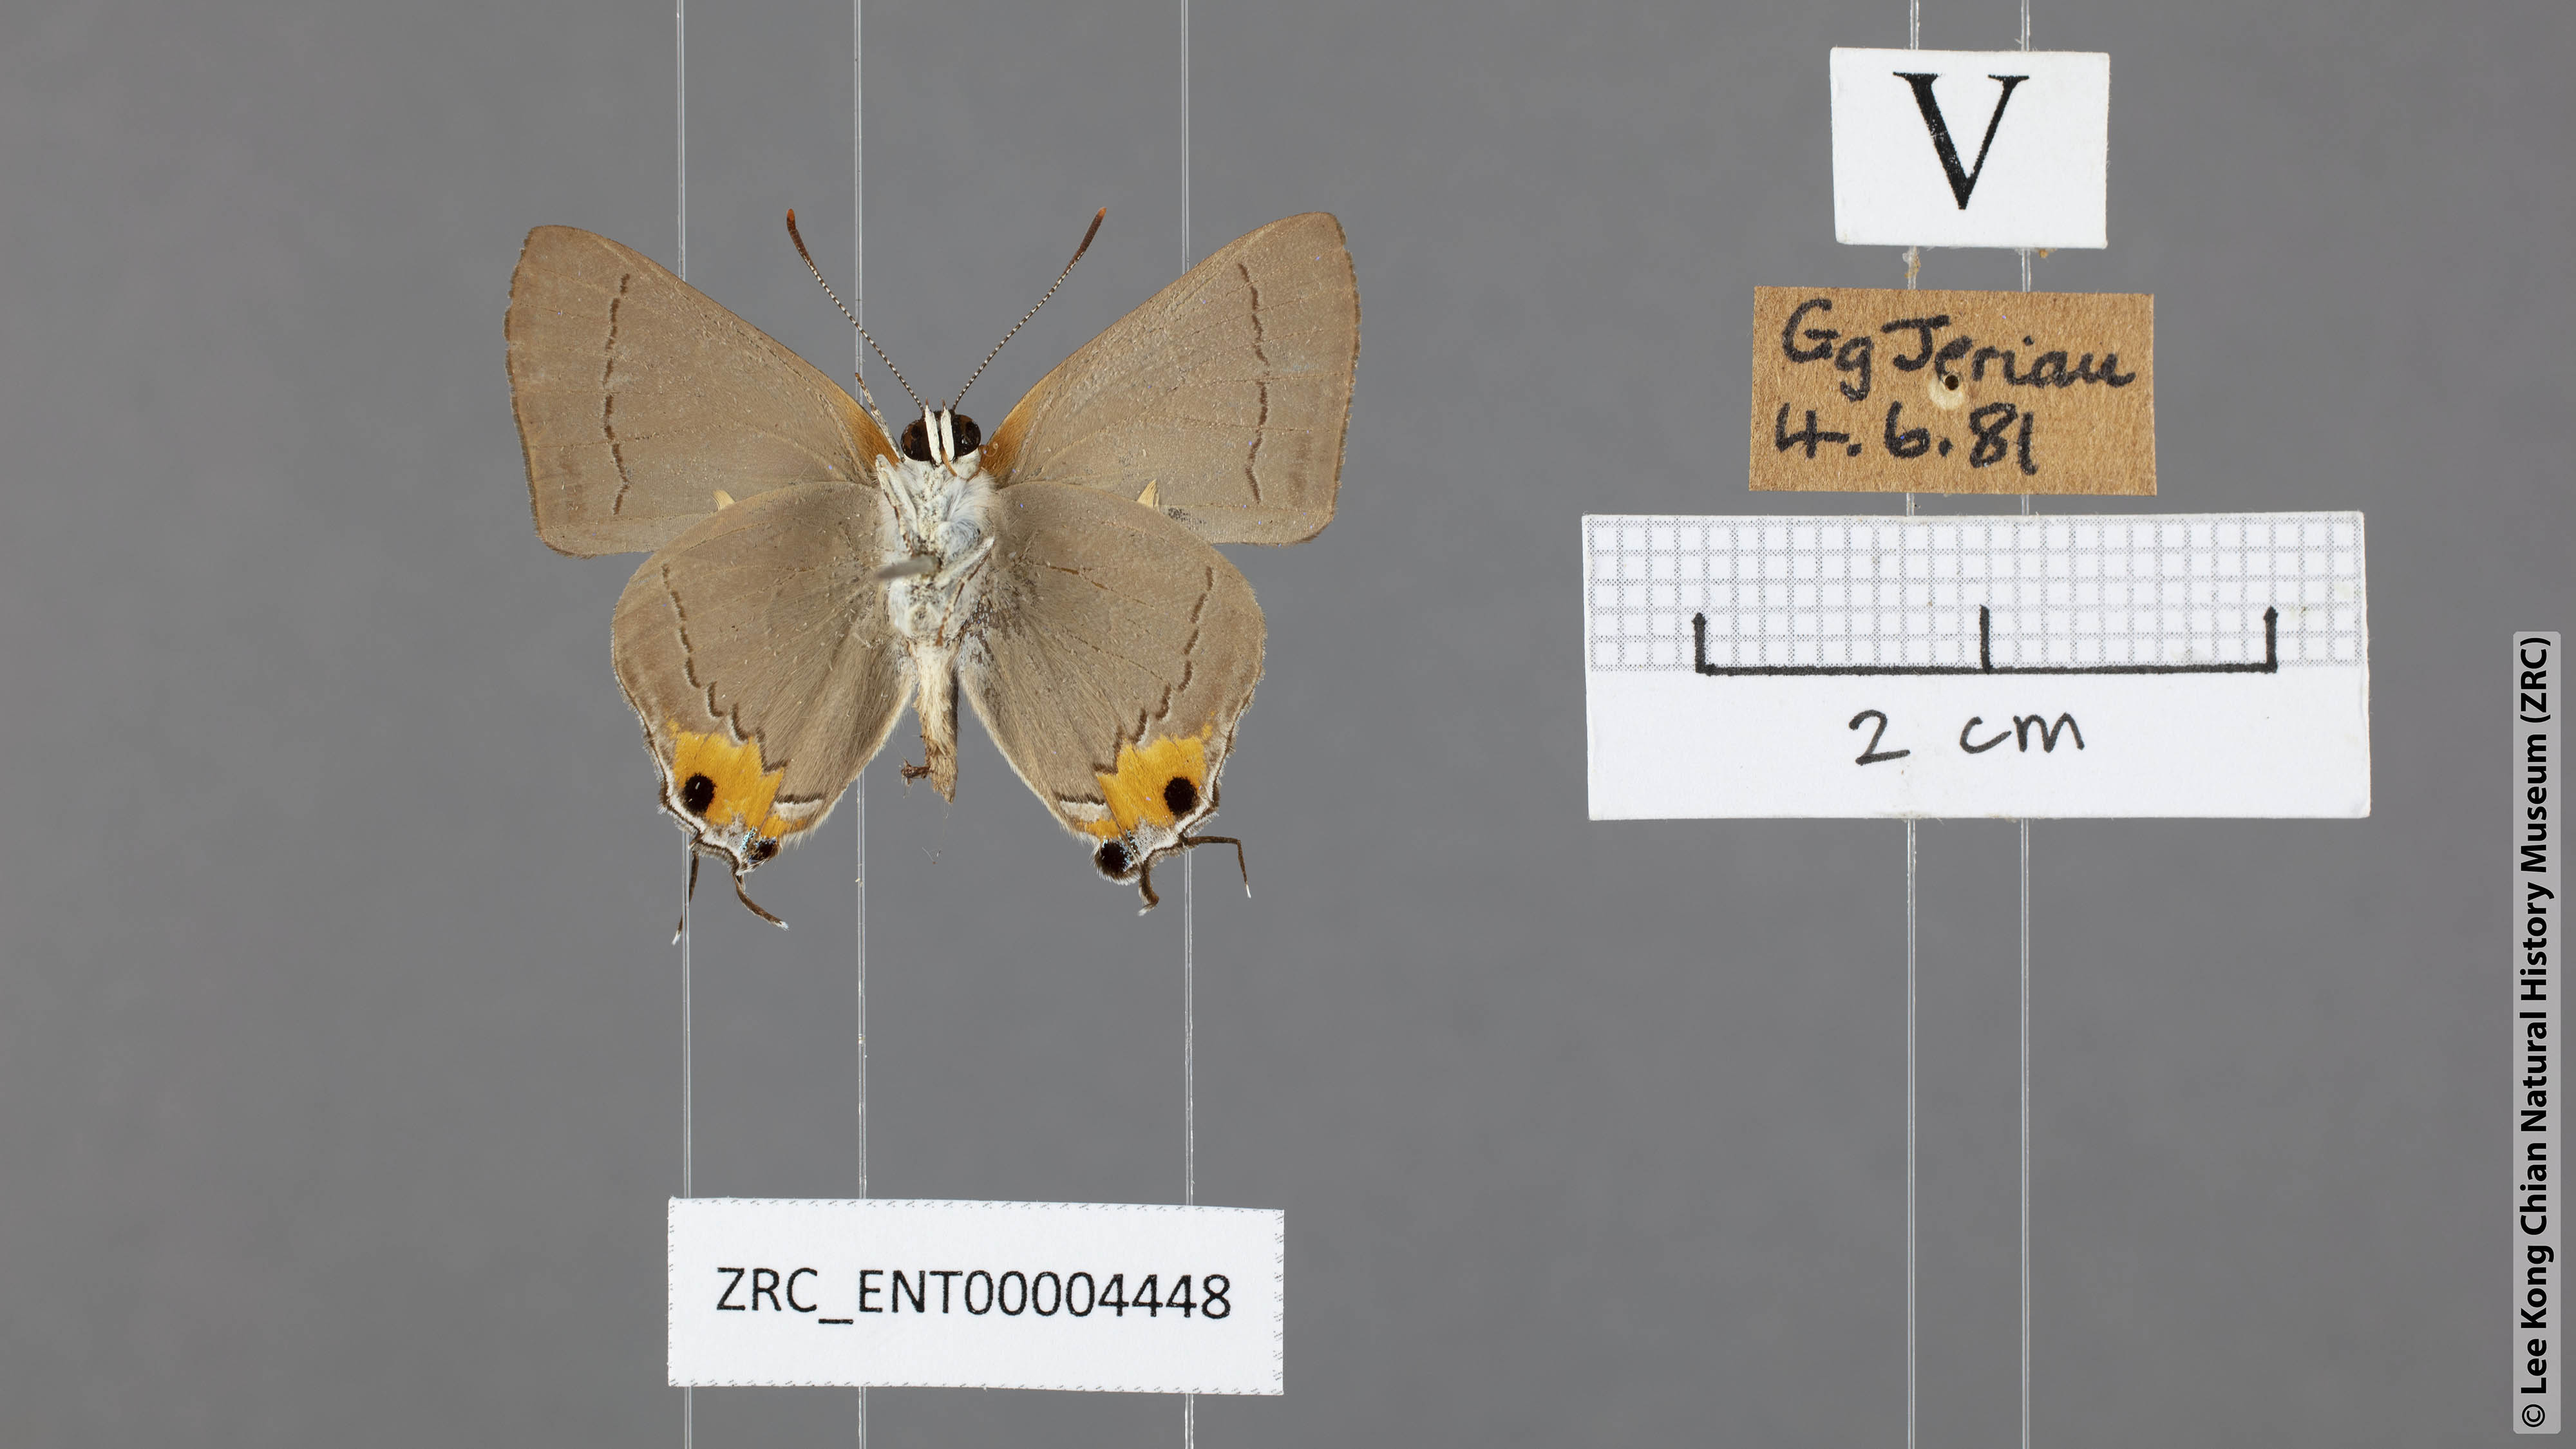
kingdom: Animalia
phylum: Arthropoda
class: Insecta
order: Lepidoptera
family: Lycaenidae
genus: Pratapa
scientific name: Pratapa
